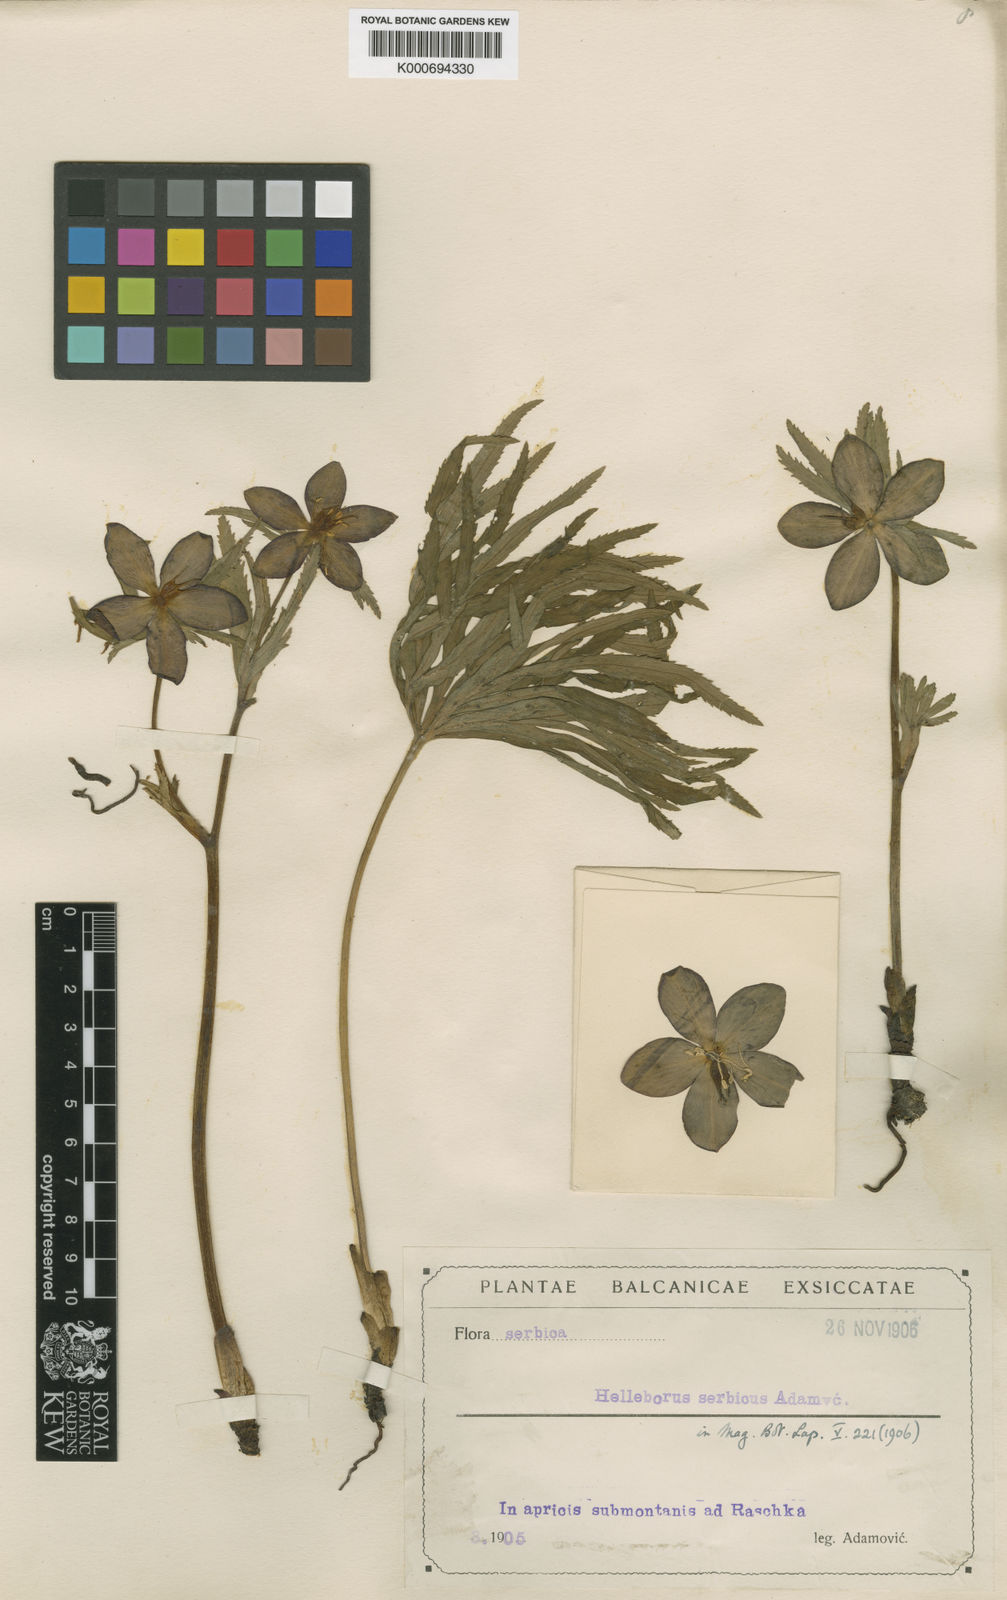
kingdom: Plantae
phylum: Tracheophyta
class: Magnoliopsida
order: Ranunculales
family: Ranunculaceae
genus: Helleborus
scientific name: Helleborus multifidus
